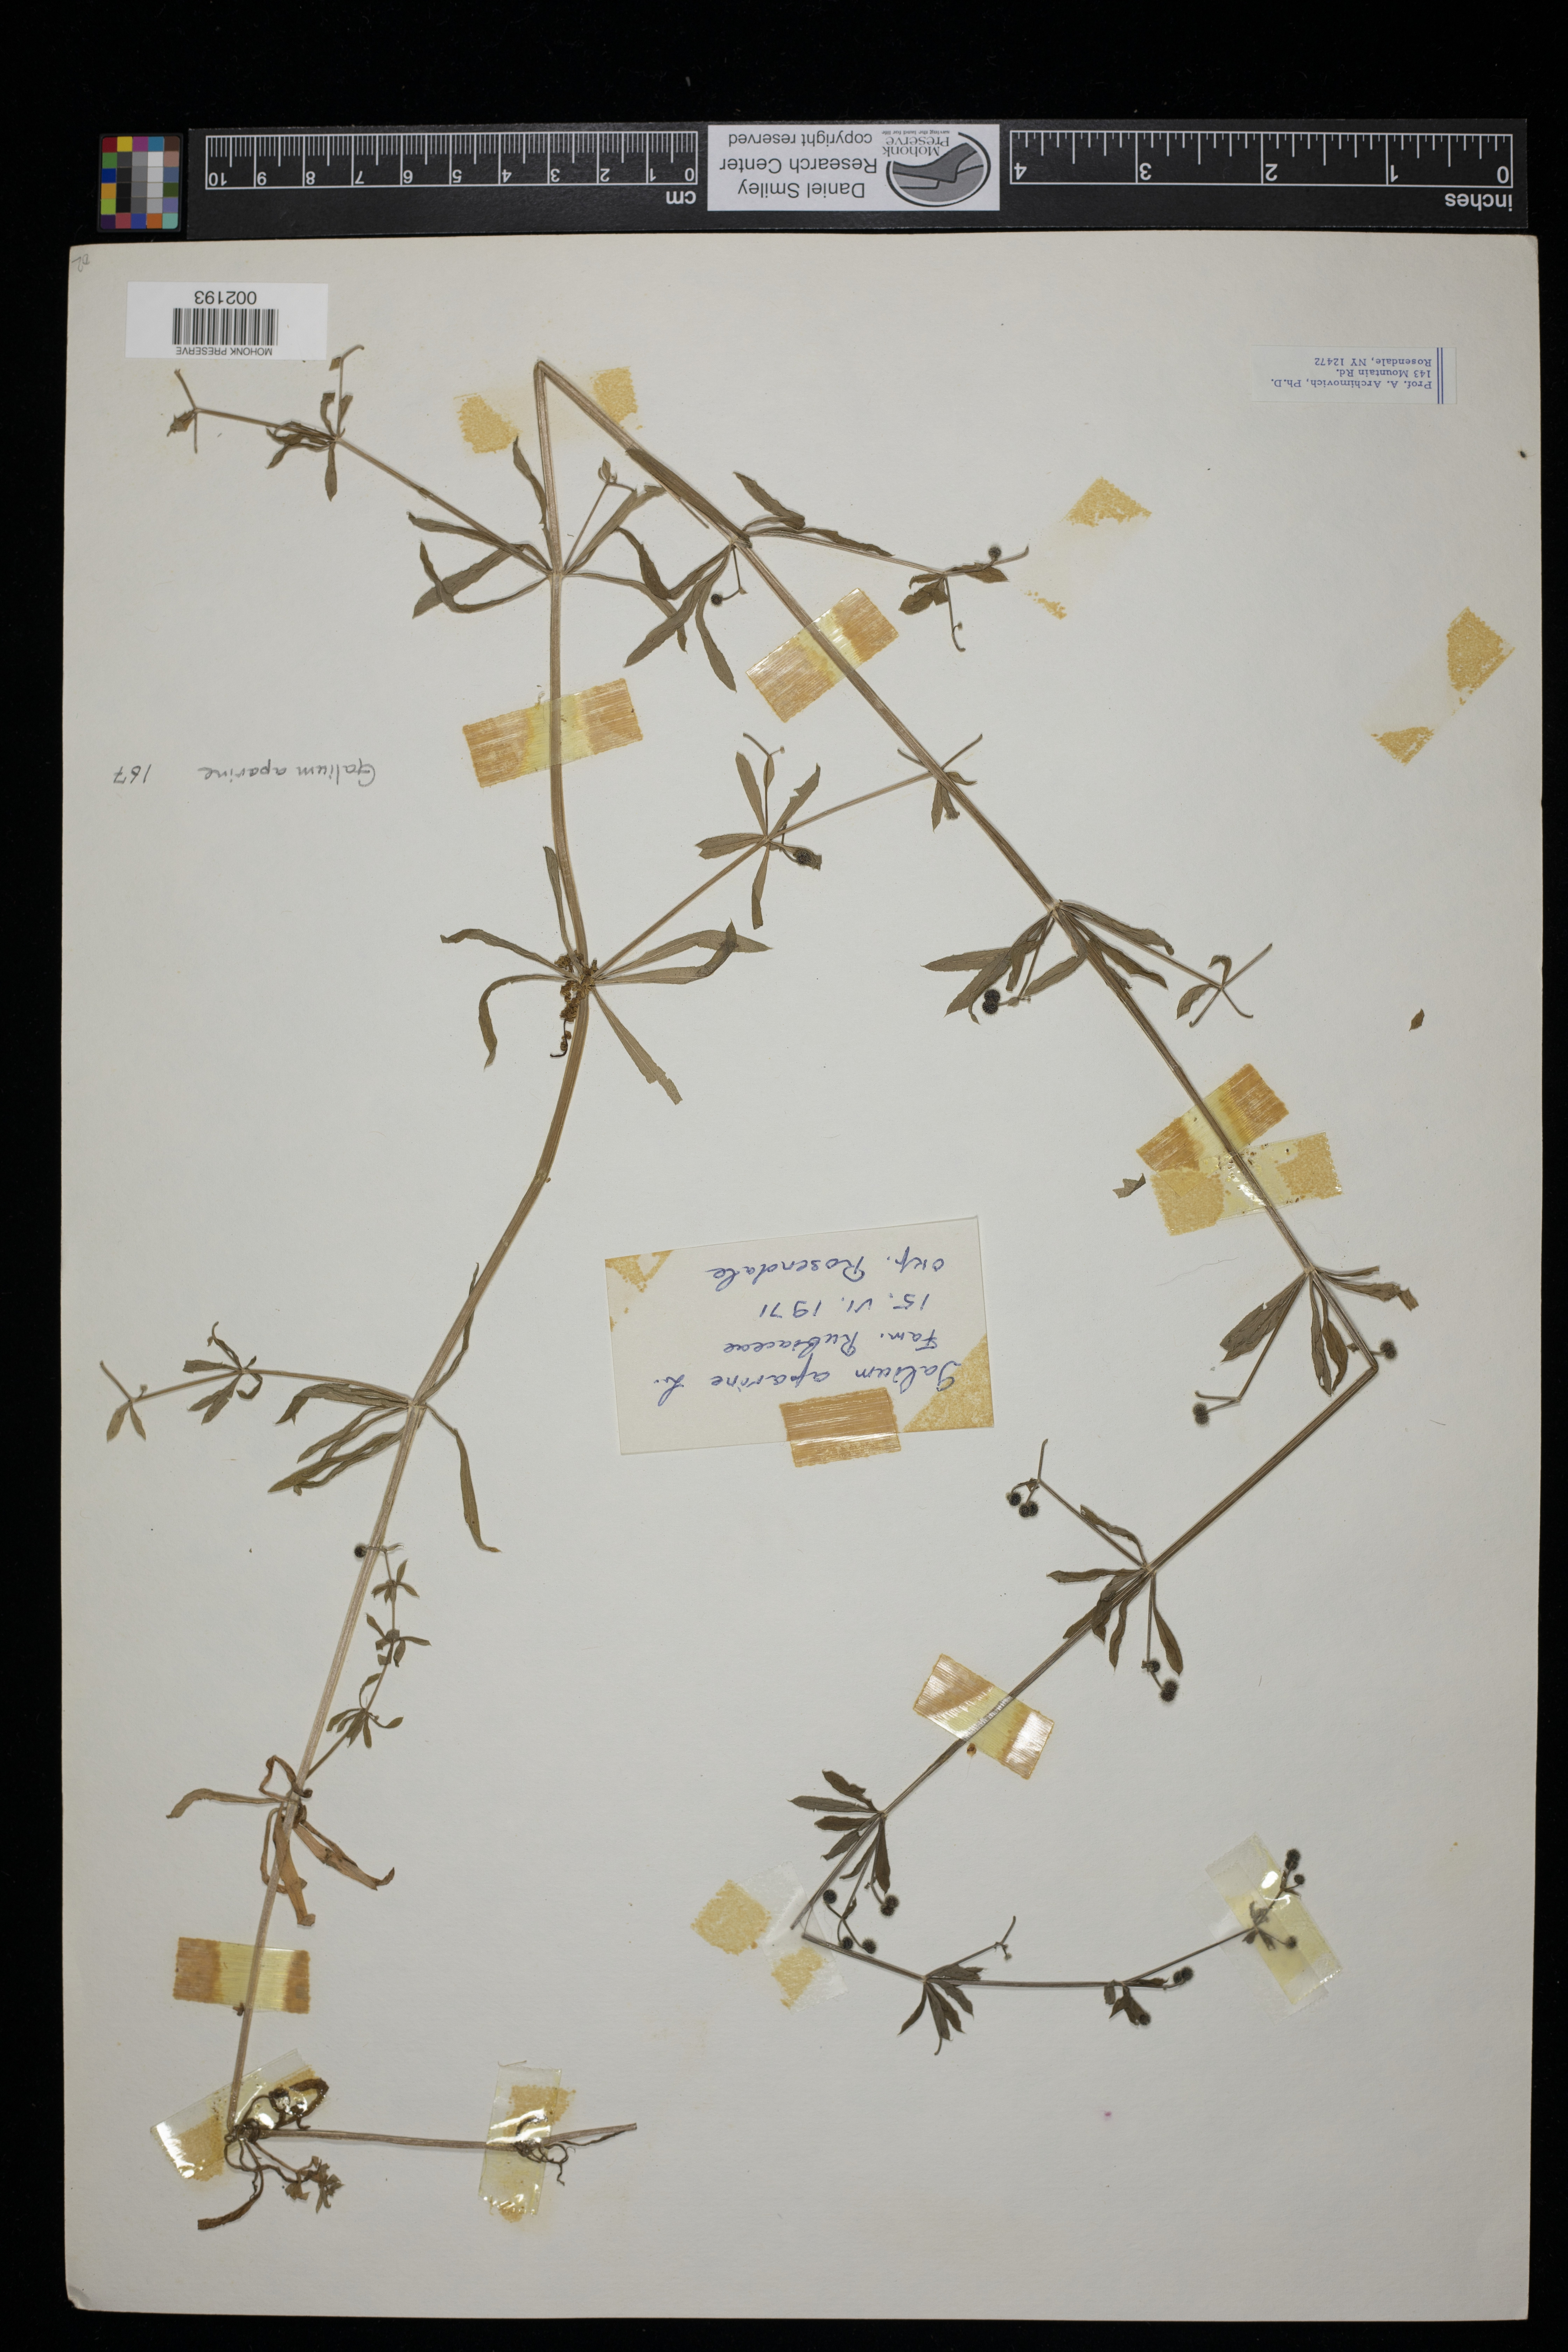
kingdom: Plantae
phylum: Tracheophyta
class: Magnoliopsida
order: Gentianales
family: Rubiaceae
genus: Galium
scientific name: Galium aparine
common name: Cleavers
